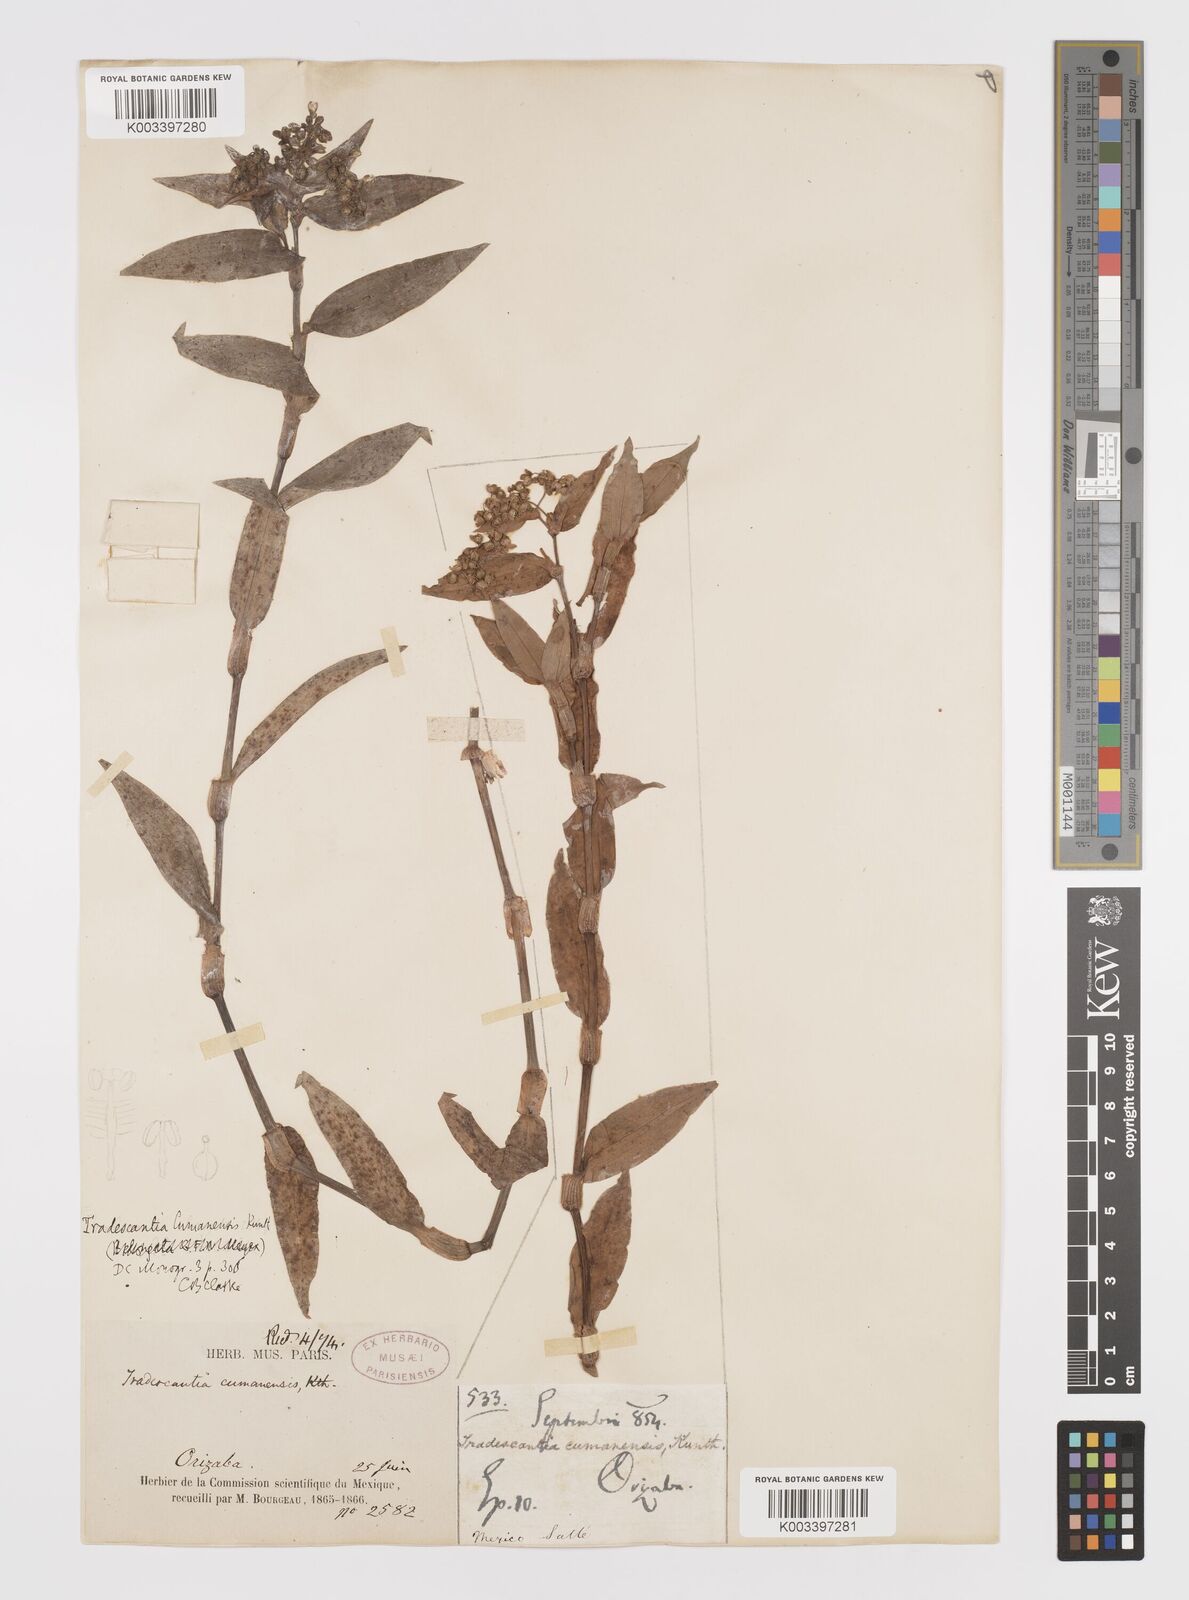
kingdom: Plantae
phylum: Tracheophyta
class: Liliopsida
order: Commelinales
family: Commelinaceae
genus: Callisia
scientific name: Callisia serrulata
